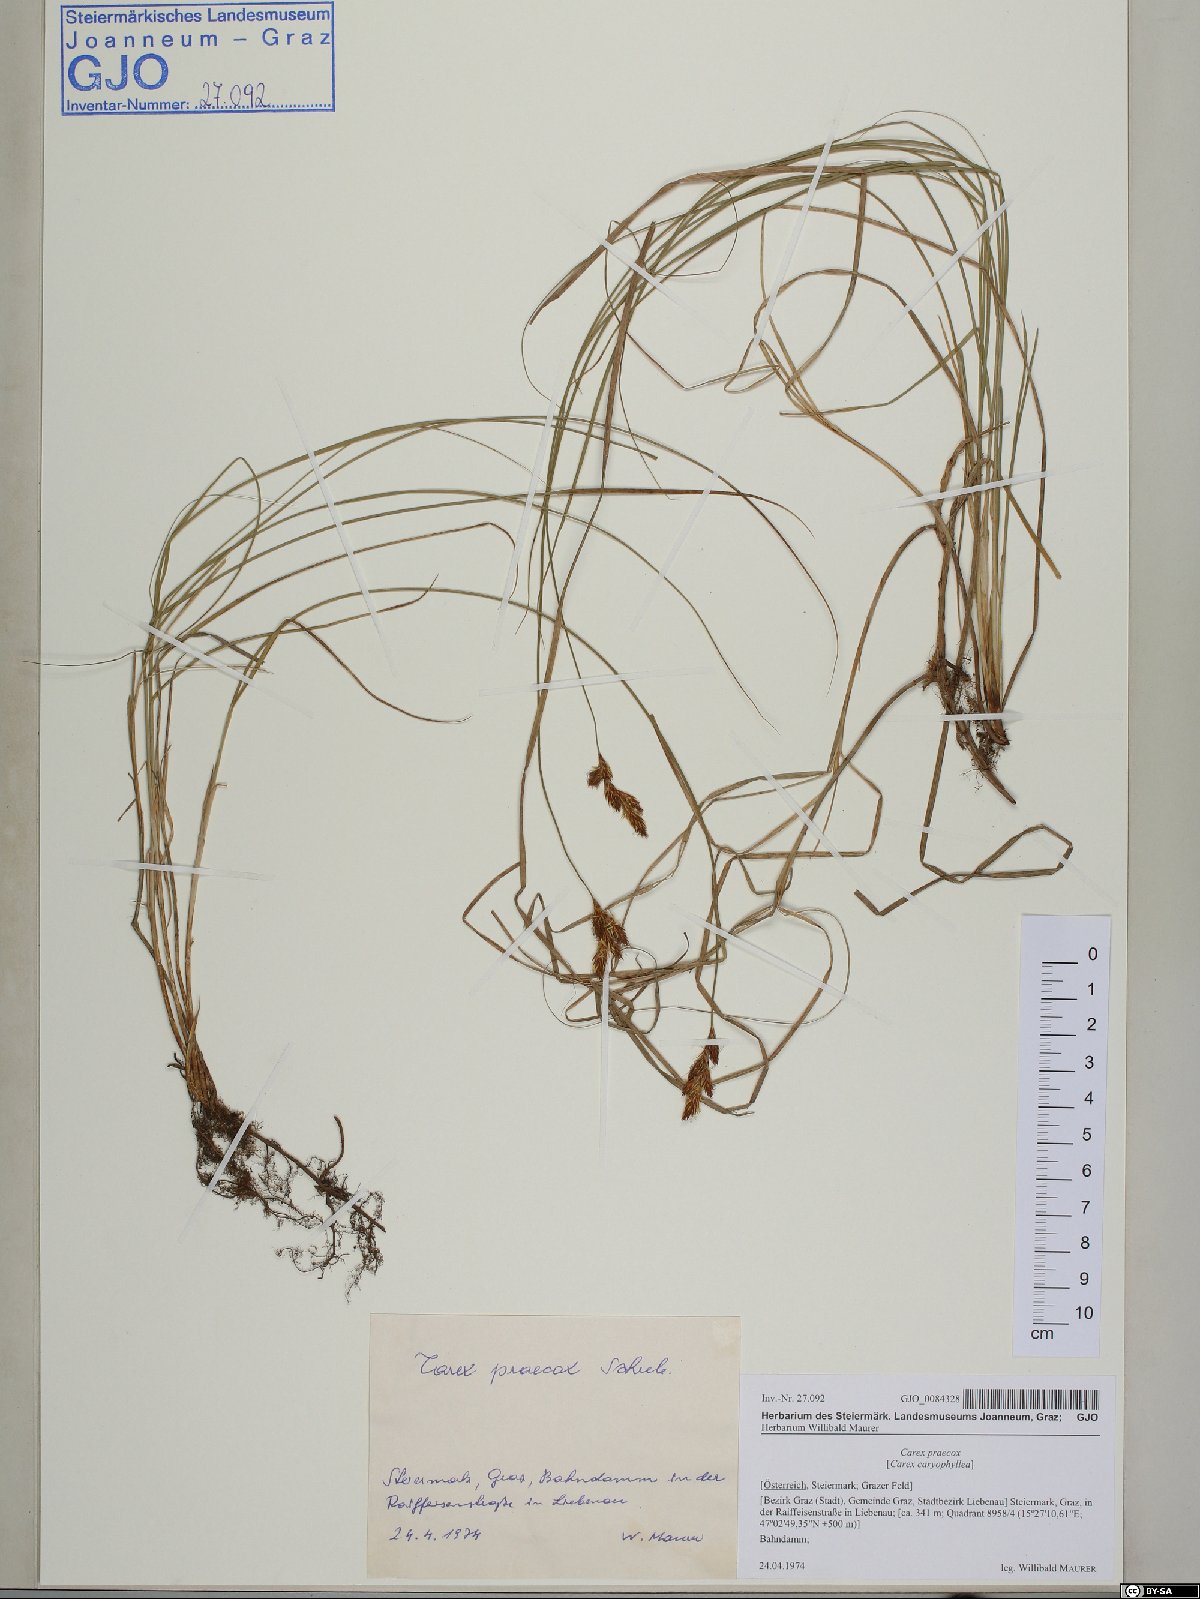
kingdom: Plantae
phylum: Tracheophyta
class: Liliopsida
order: Poales
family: Cyperaceae
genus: Carex
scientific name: Carex praecox
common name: Early sedge
